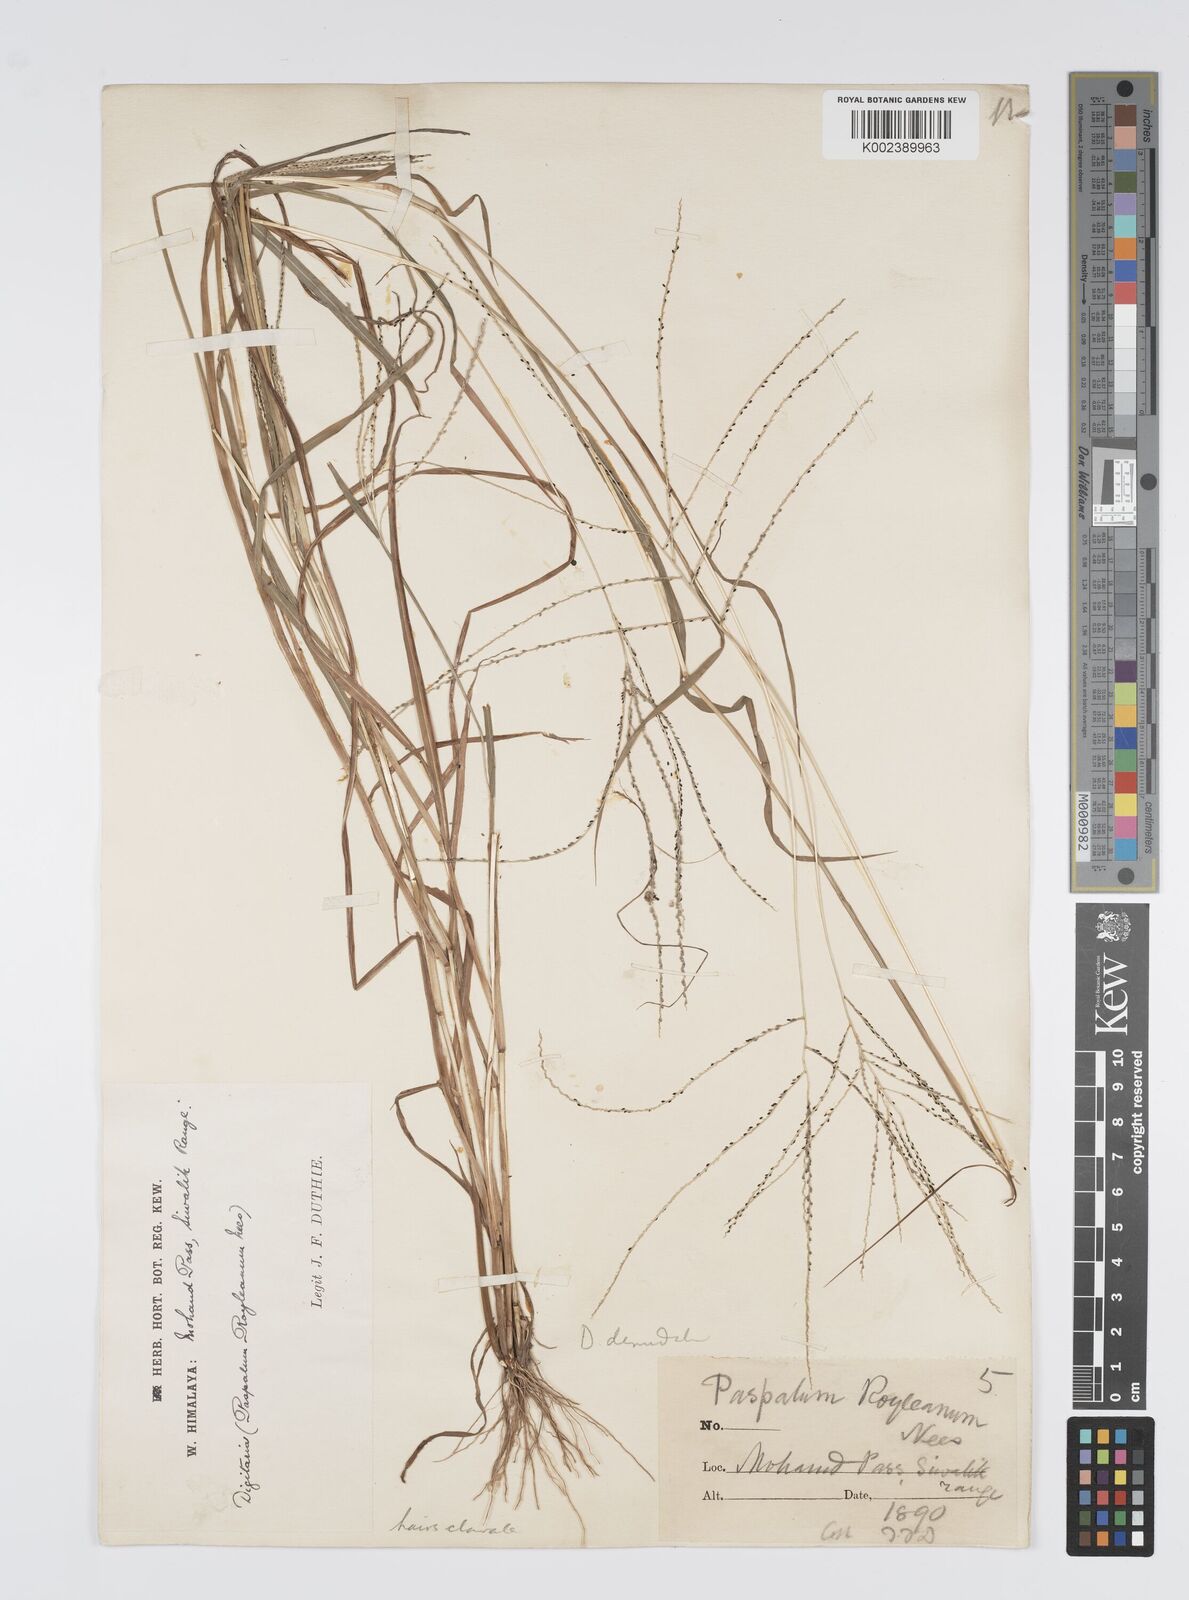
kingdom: Plantae
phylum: Tracheophyta
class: Liliopsida
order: Poales
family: Poaceae
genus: Digitaria
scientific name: Digitaria stricta
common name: Crabgrass
